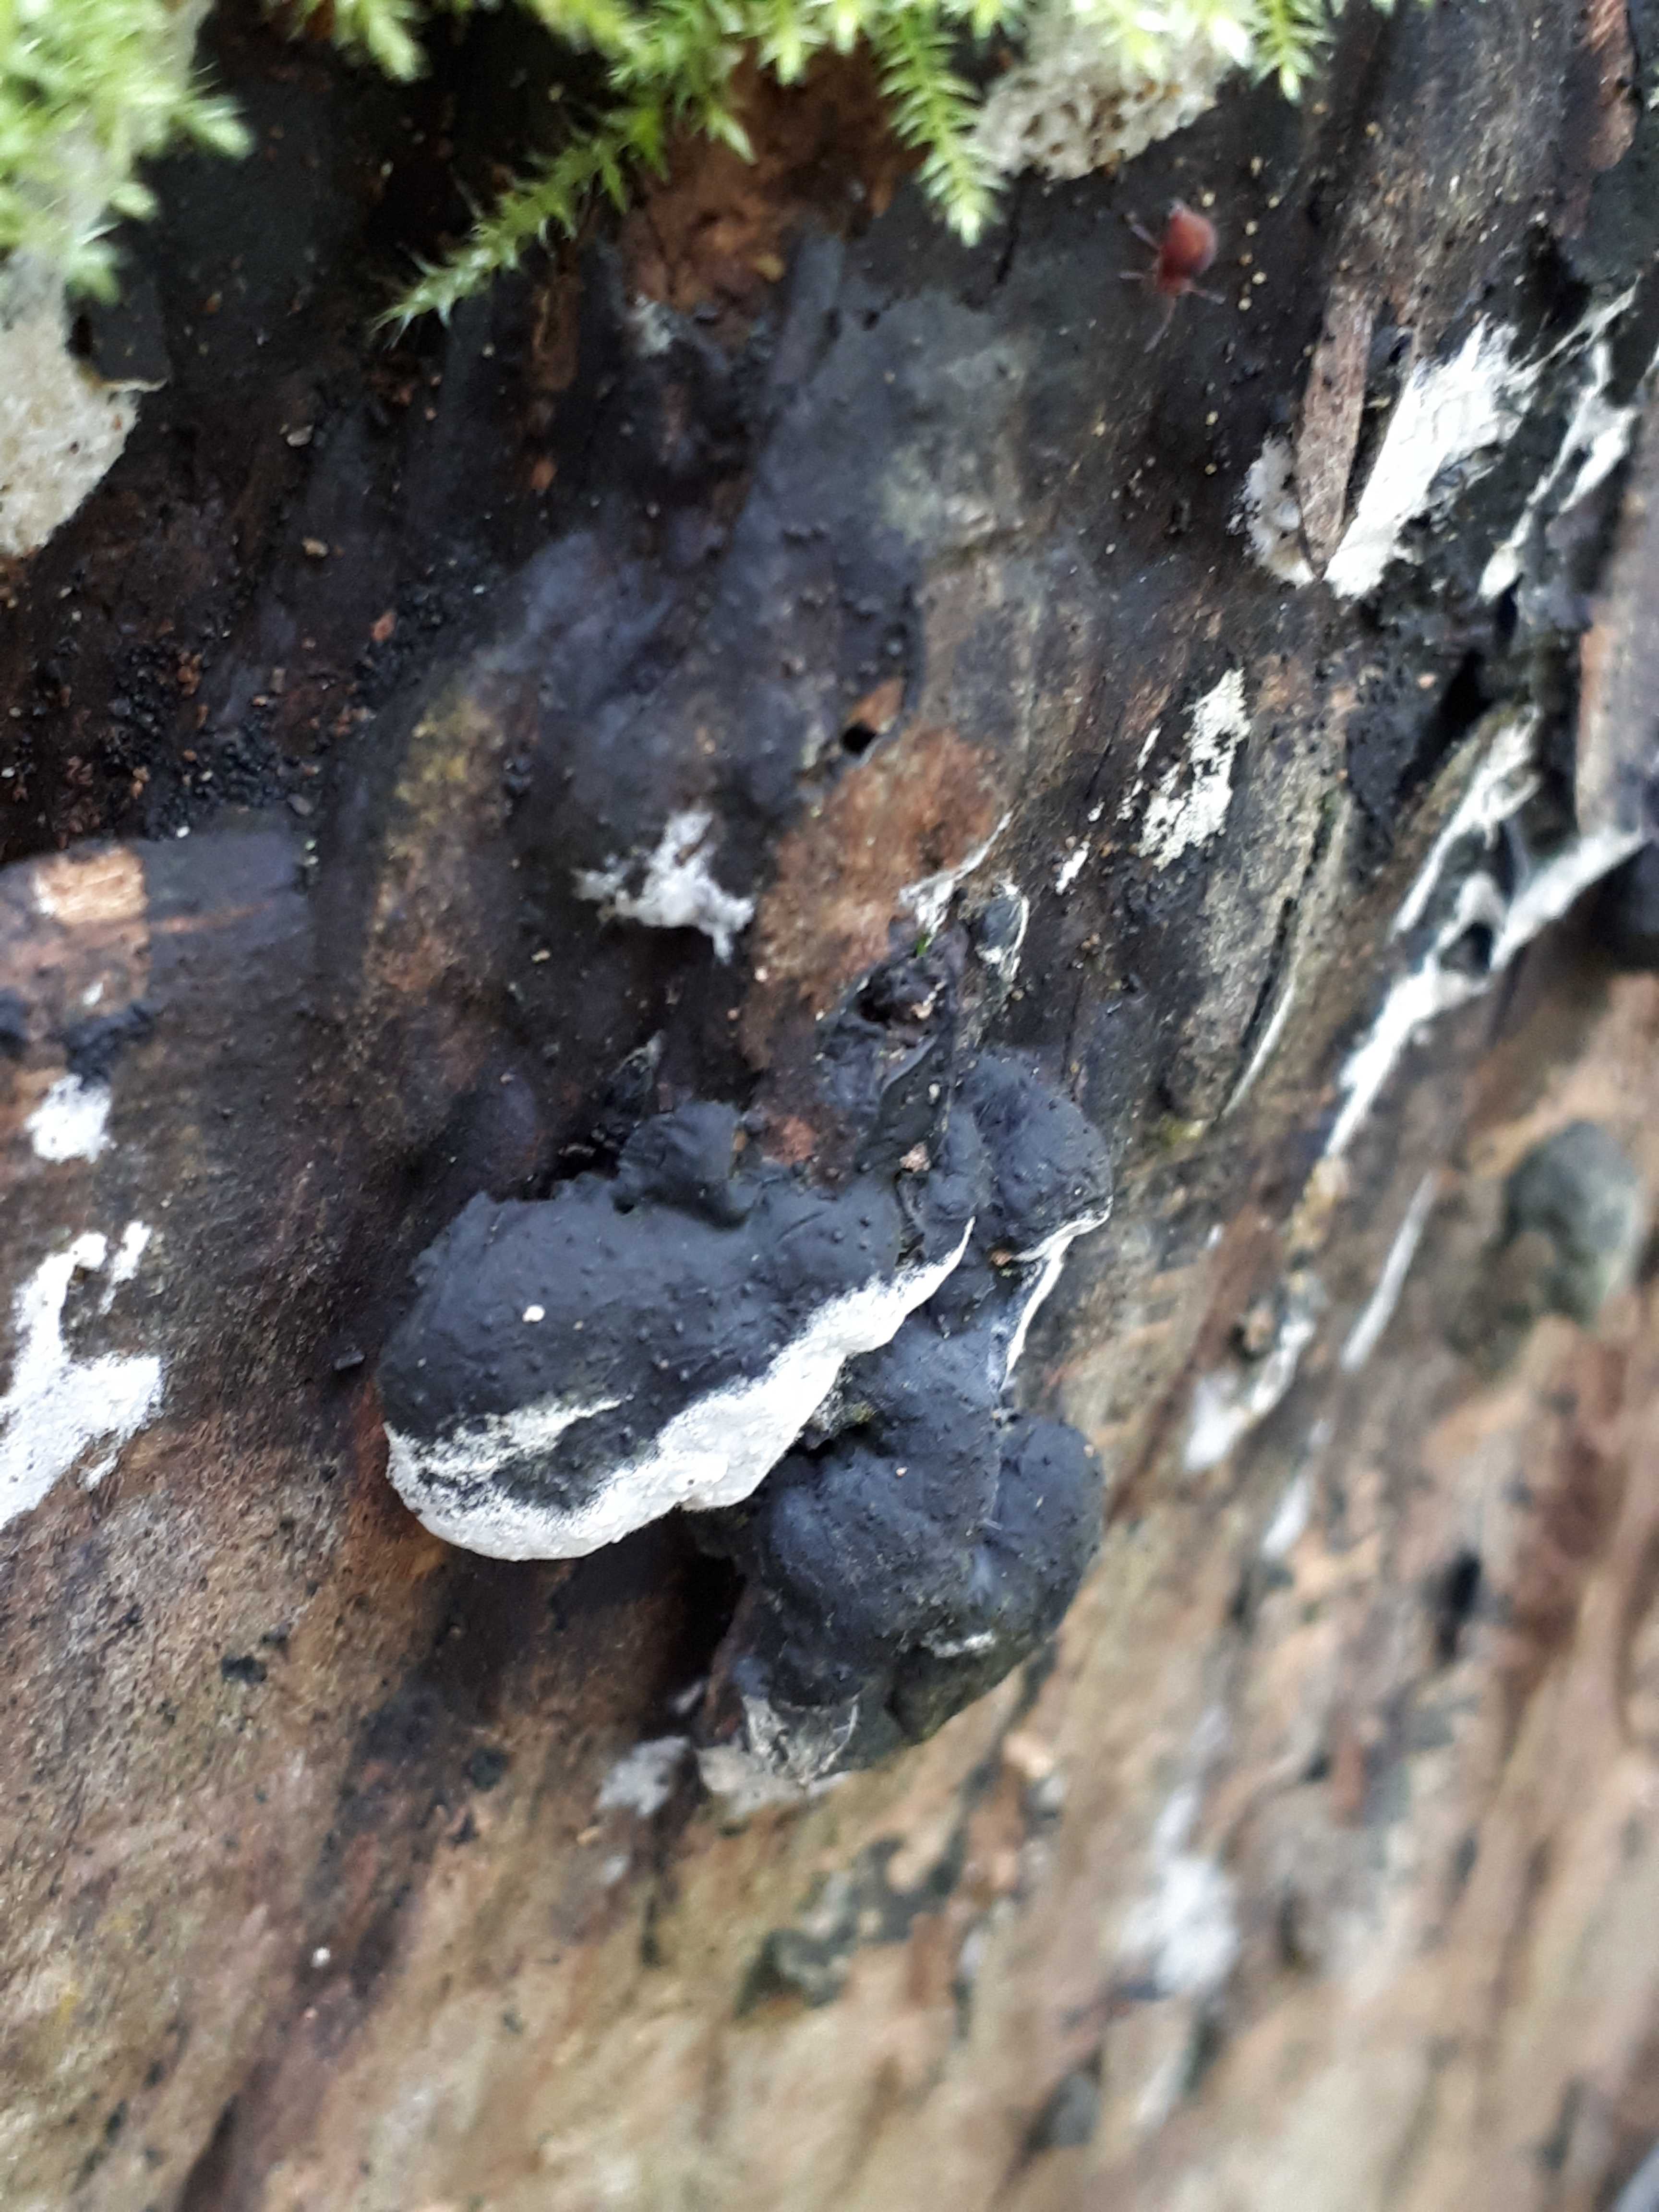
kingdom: Fungi
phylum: Ascomycota
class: Sordariomycetes
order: Xylariales
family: Xylariaceae
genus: Kretzschmaria
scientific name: Kretzschmaria deusta
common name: stor kulsvamp
